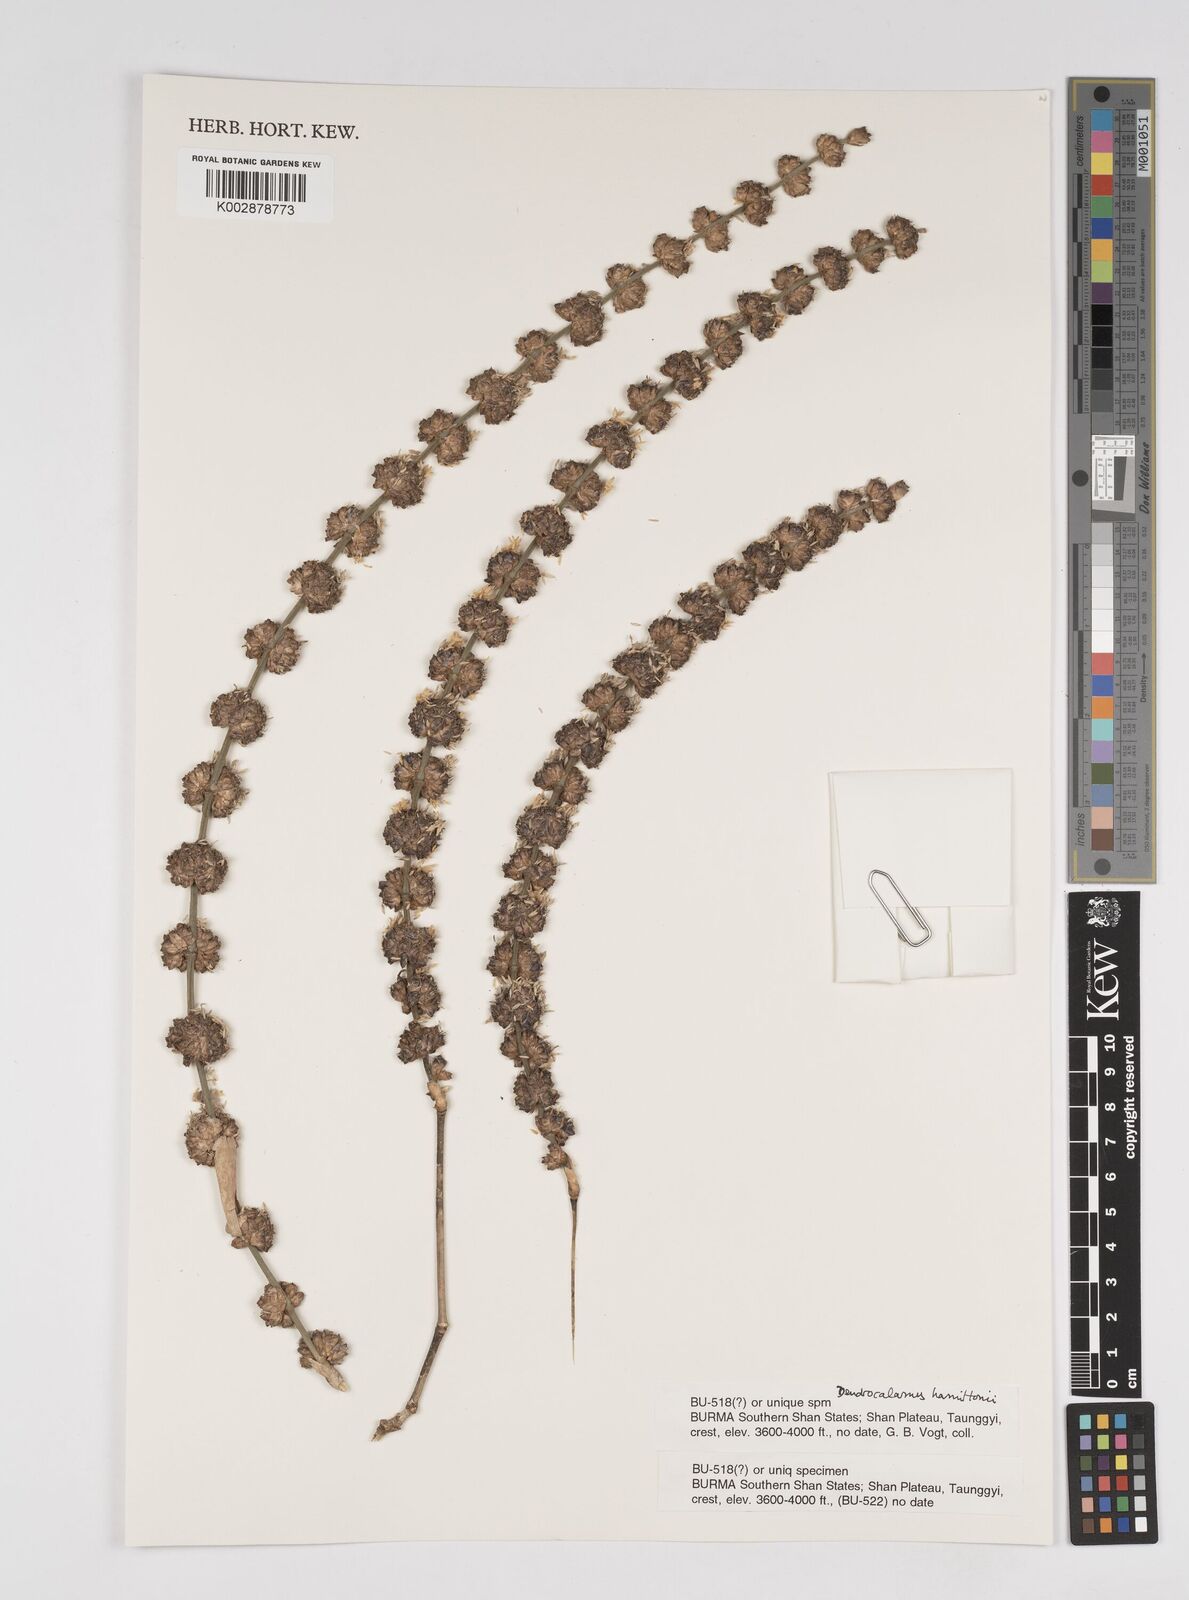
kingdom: Plantae
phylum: Tracheophyta
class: Liliopsida
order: Poales
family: Poaceae
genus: Dendrocalamus
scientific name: Dendrocalamus hamiltonii
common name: Tama bamboo
